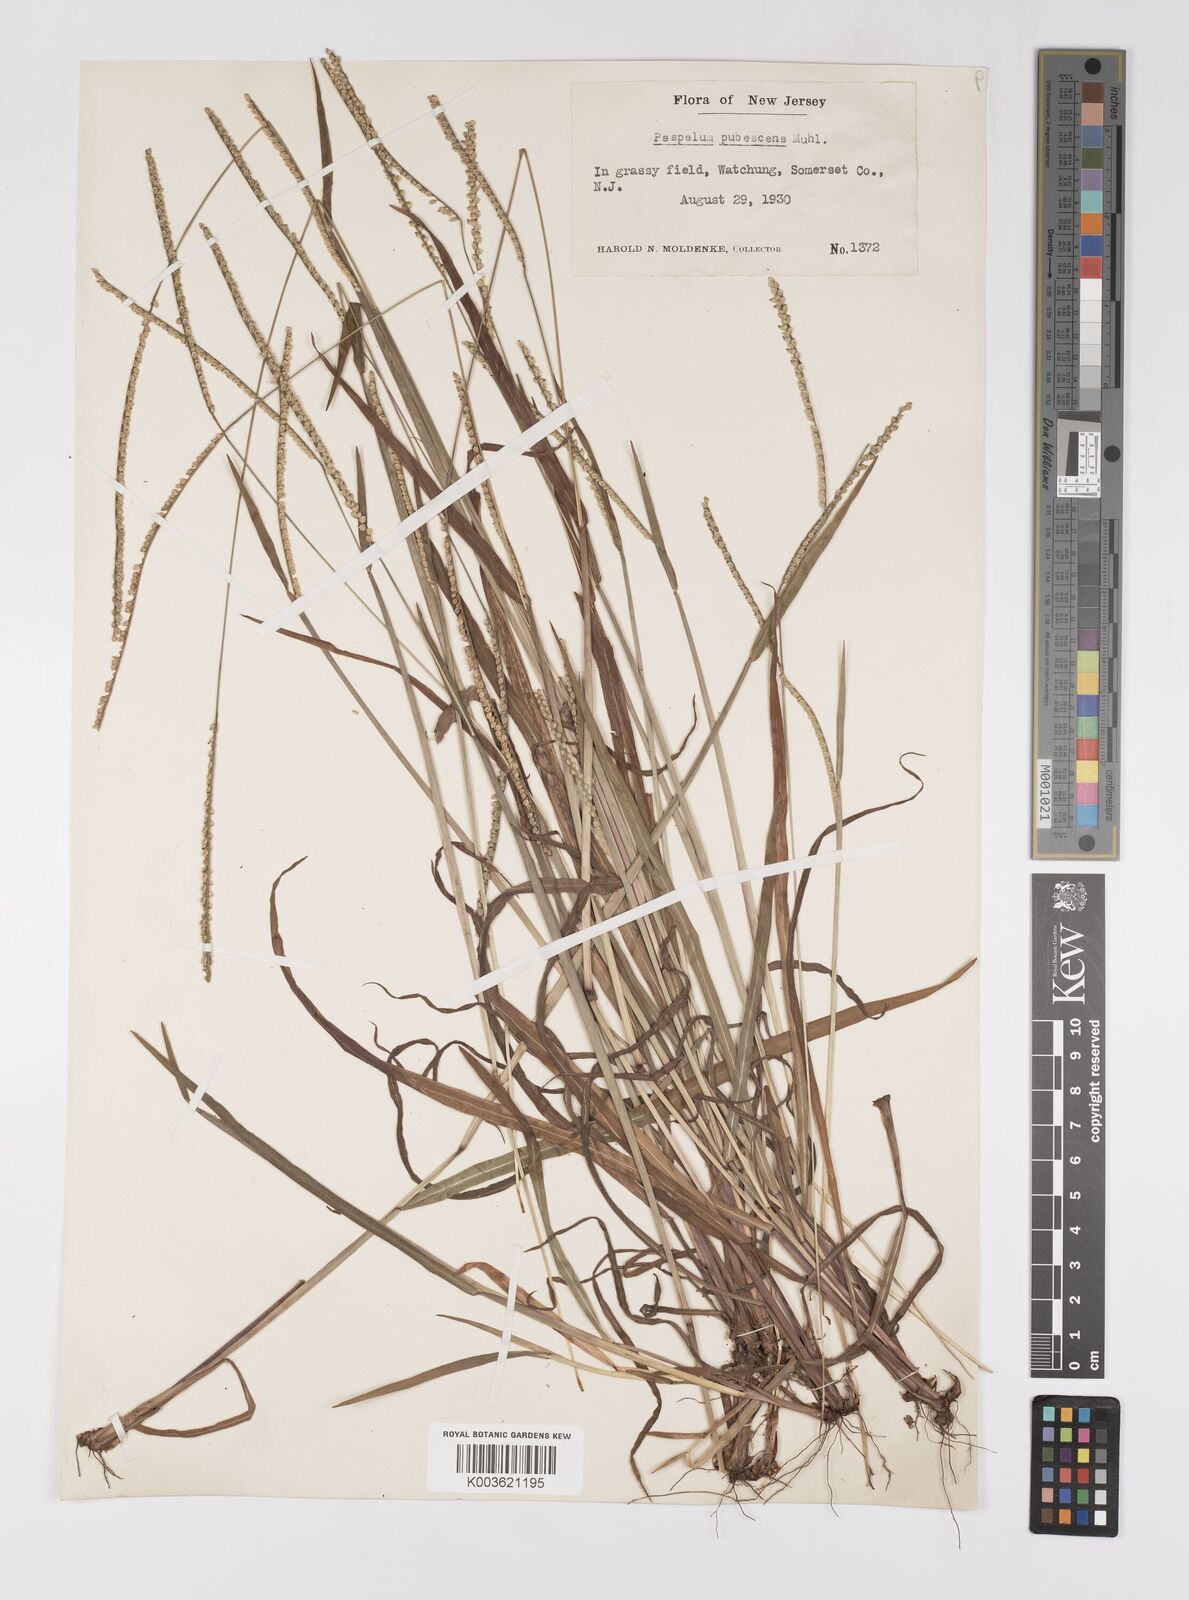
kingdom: Plantae
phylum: Tracheophyta
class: Liliopsida
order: Poales
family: Poaceae
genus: Paspalum
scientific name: Paspalum setaceum
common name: Slender paspalum
